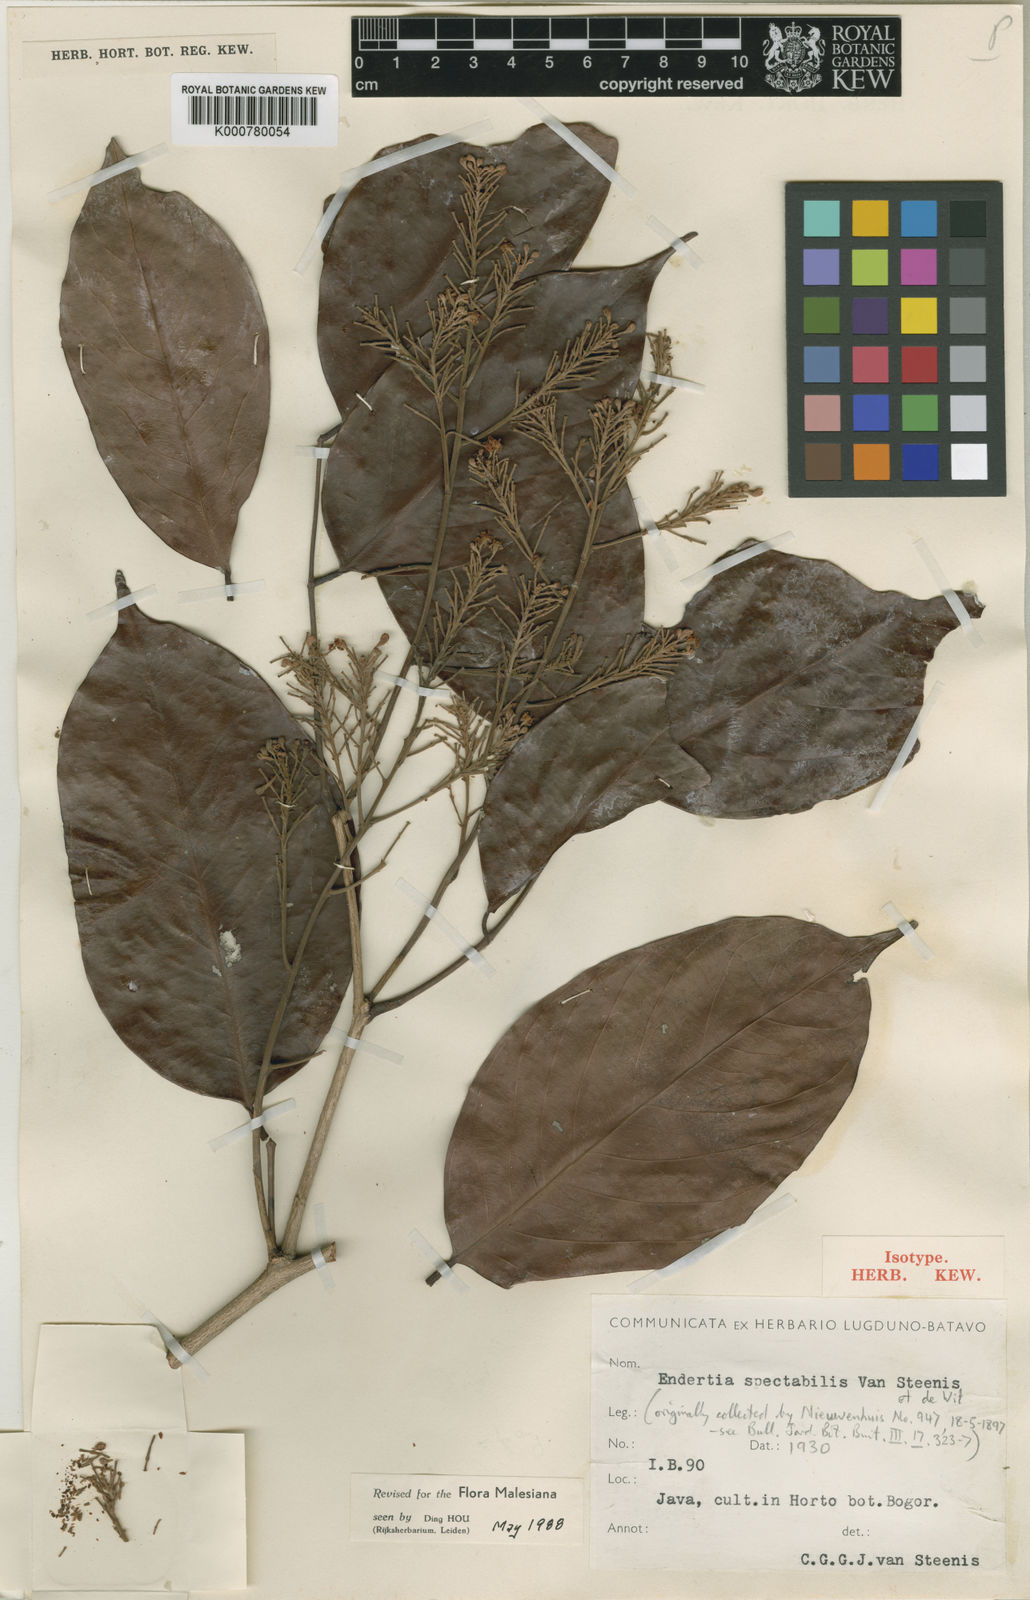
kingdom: Plantae
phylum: Tracheophyta
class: Magnoliopsida
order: Fabales
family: Fabaceae
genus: Endertia
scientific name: Endertia spectabilis
